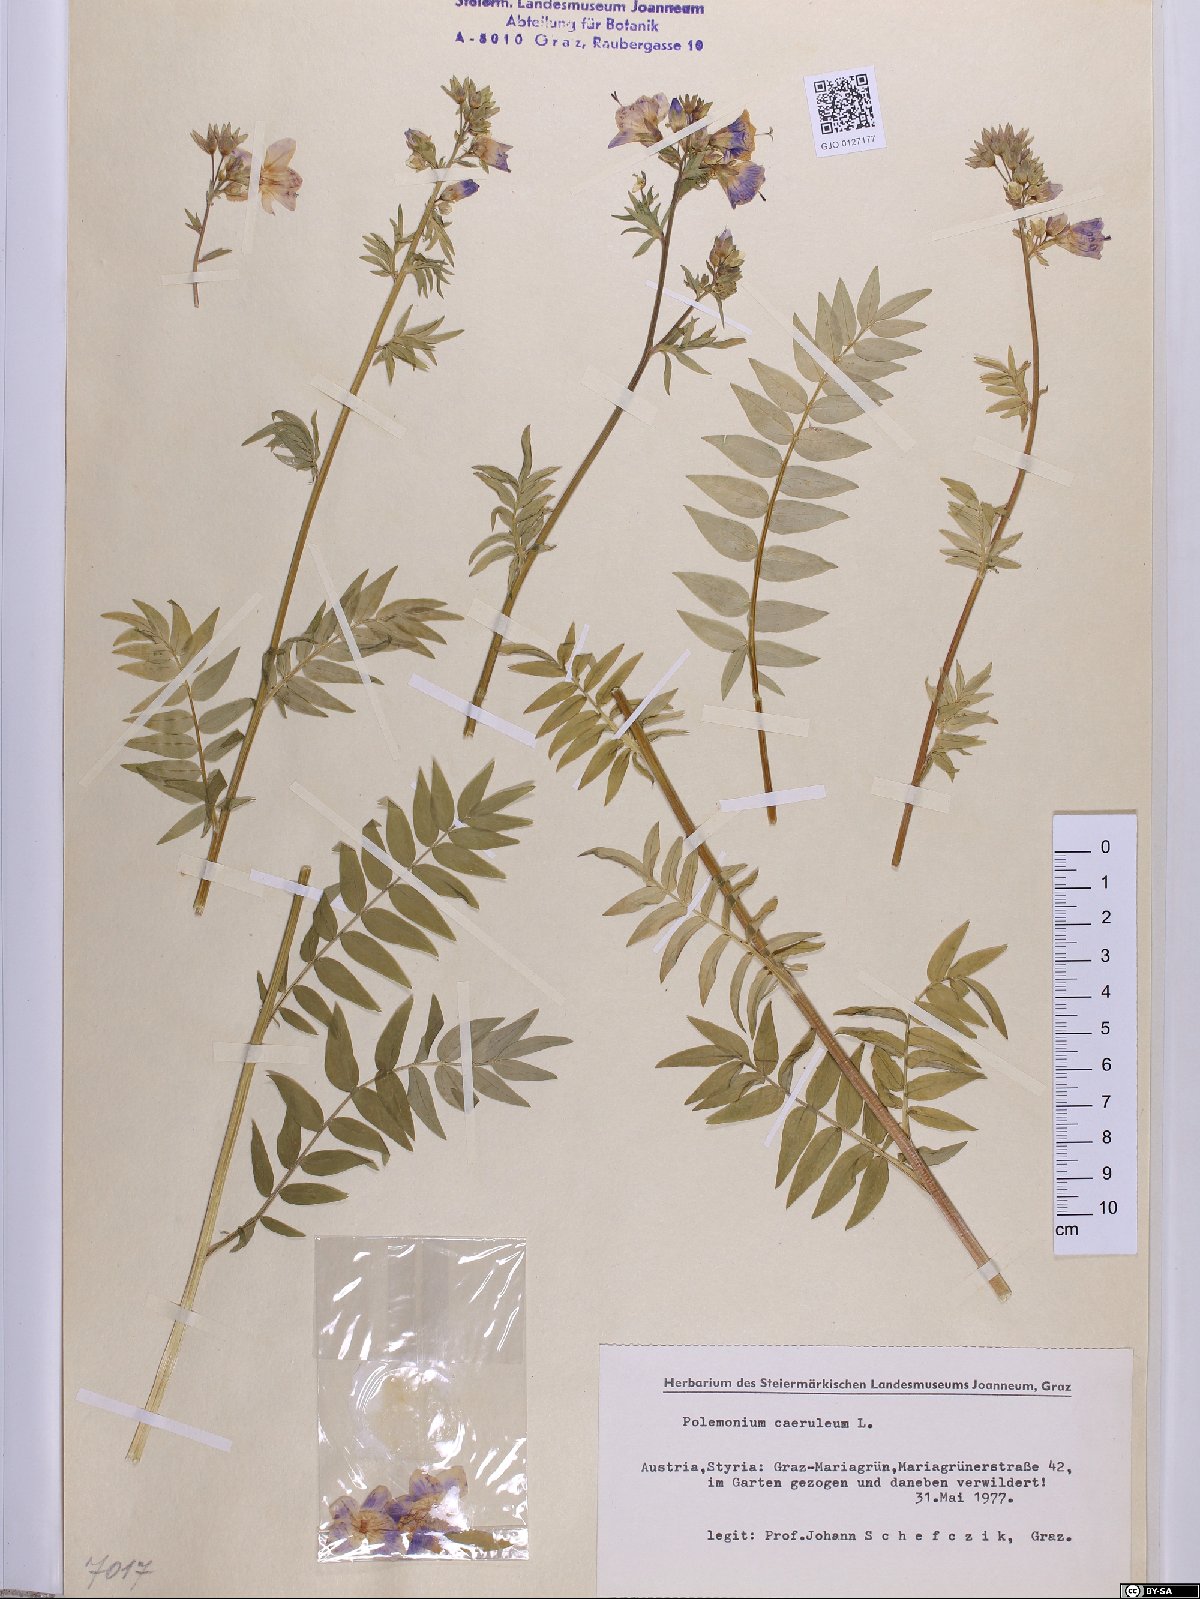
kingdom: Plantae
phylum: Tracheophyta
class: Magnoliopsida
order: Ericales
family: Polemoniaceae
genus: Polemonium
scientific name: Polemonium caeruleum
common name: Jacob's-ladder
